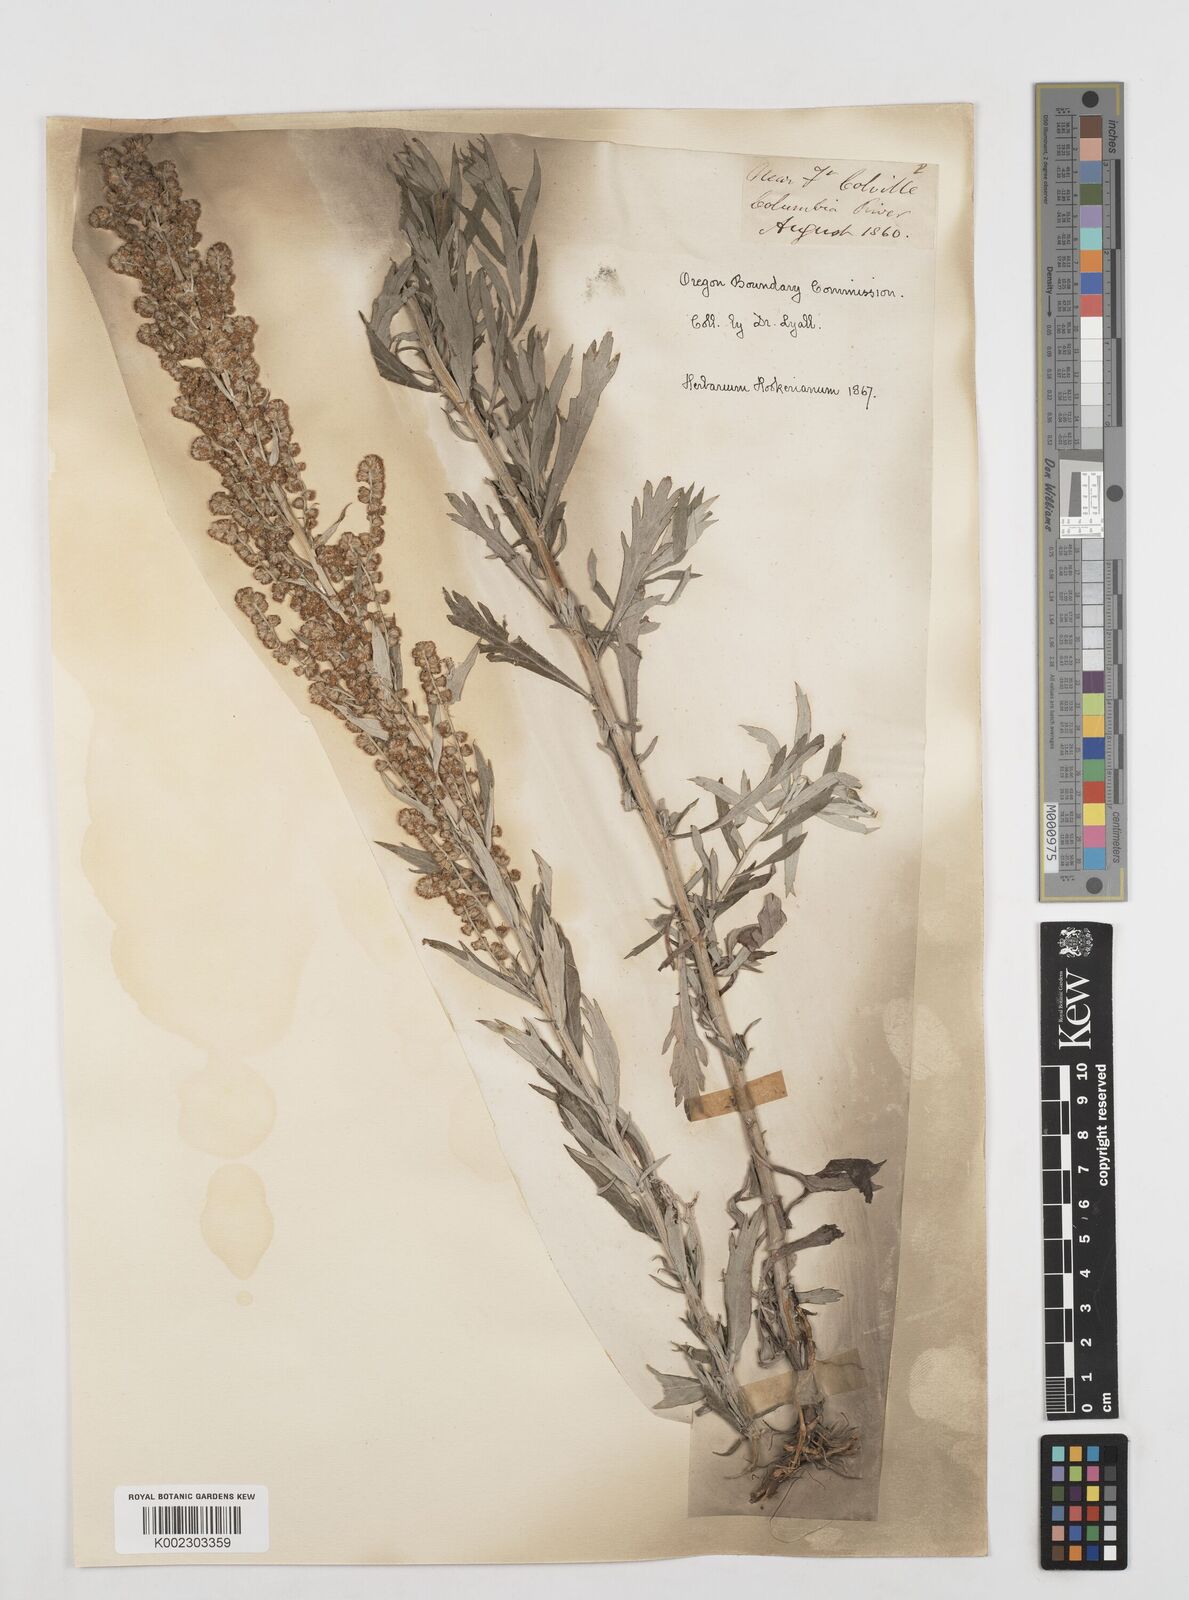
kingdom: Plantae
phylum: Tracheophyta
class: Magnoliopsida
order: Asterales
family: Asteraceae
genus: Artemisia
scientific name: Artemisia
